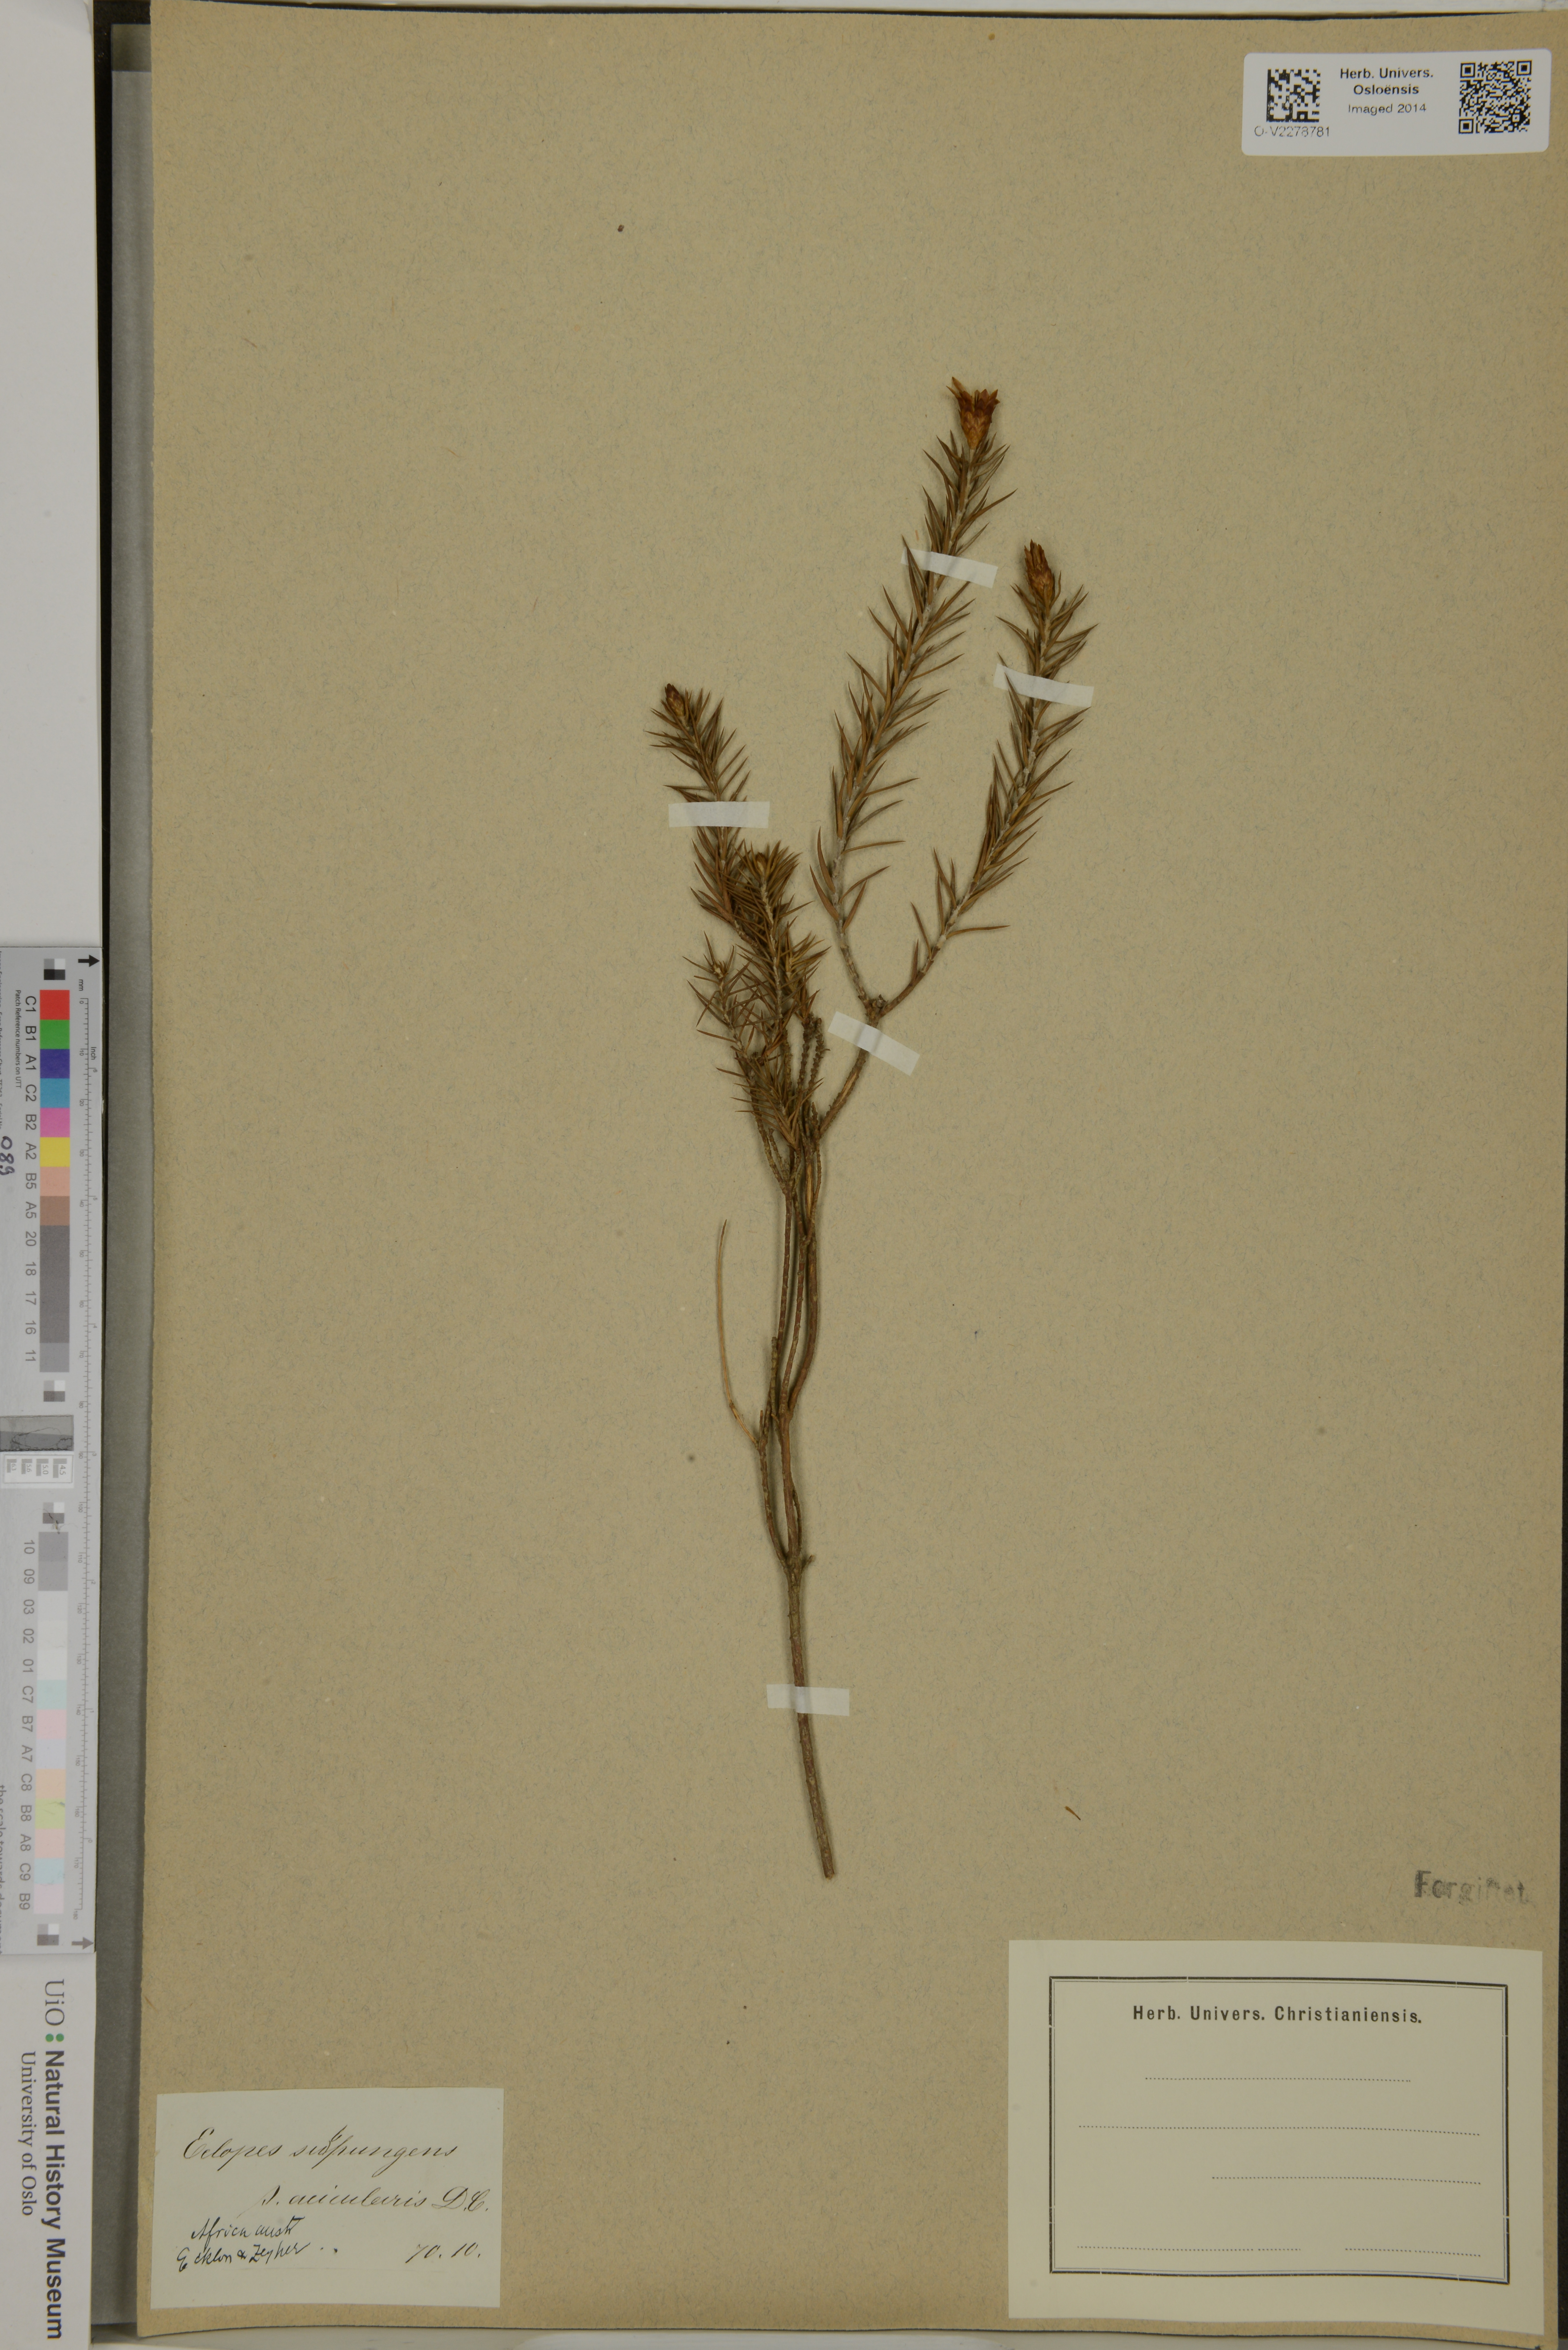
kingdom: Plantae
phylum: Tracheophyta
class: Magnoliopsida
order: Asterales
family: Asteraceae
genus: Oedera
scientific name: Oedera pungens
